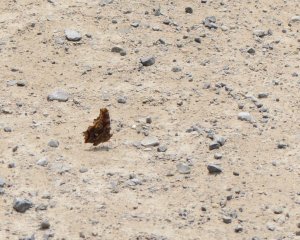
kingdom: Animalia
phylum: Arthropoda
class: Insecta
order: Lepidoptera
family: Nymphalidae
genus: Polygonia
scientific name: Polygonia comma
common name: Eastern Comma
